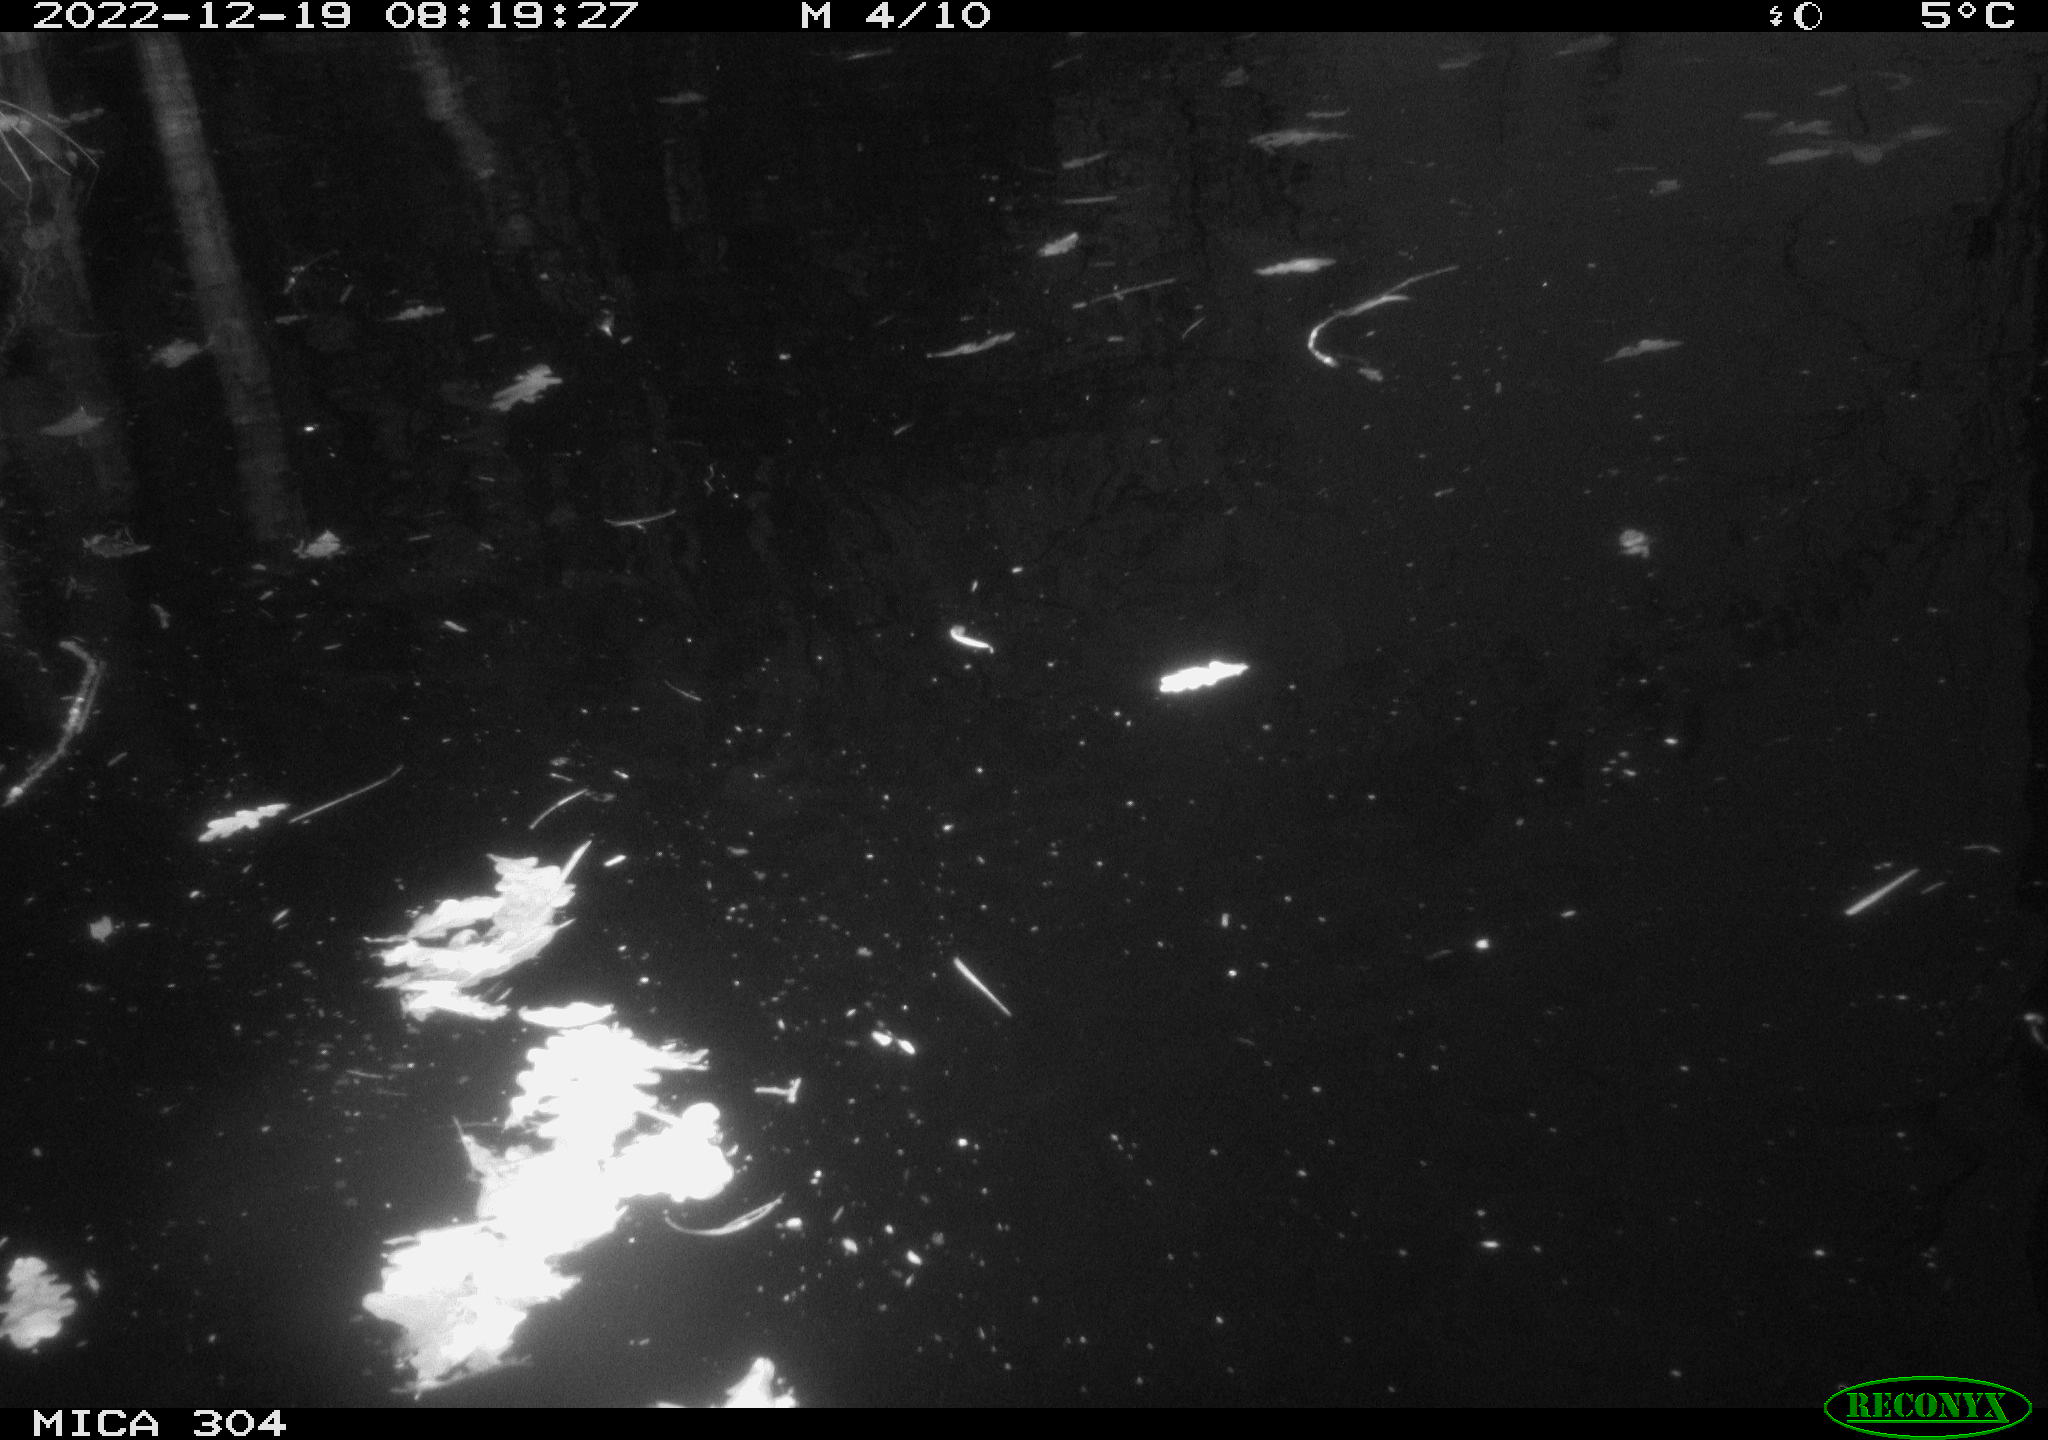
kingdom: Animalia
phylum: Chordata
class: Aves
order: Gruiformes
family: Rallidae
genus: Gallinula
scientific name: Gallinula chloropus
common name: Common moorhen
